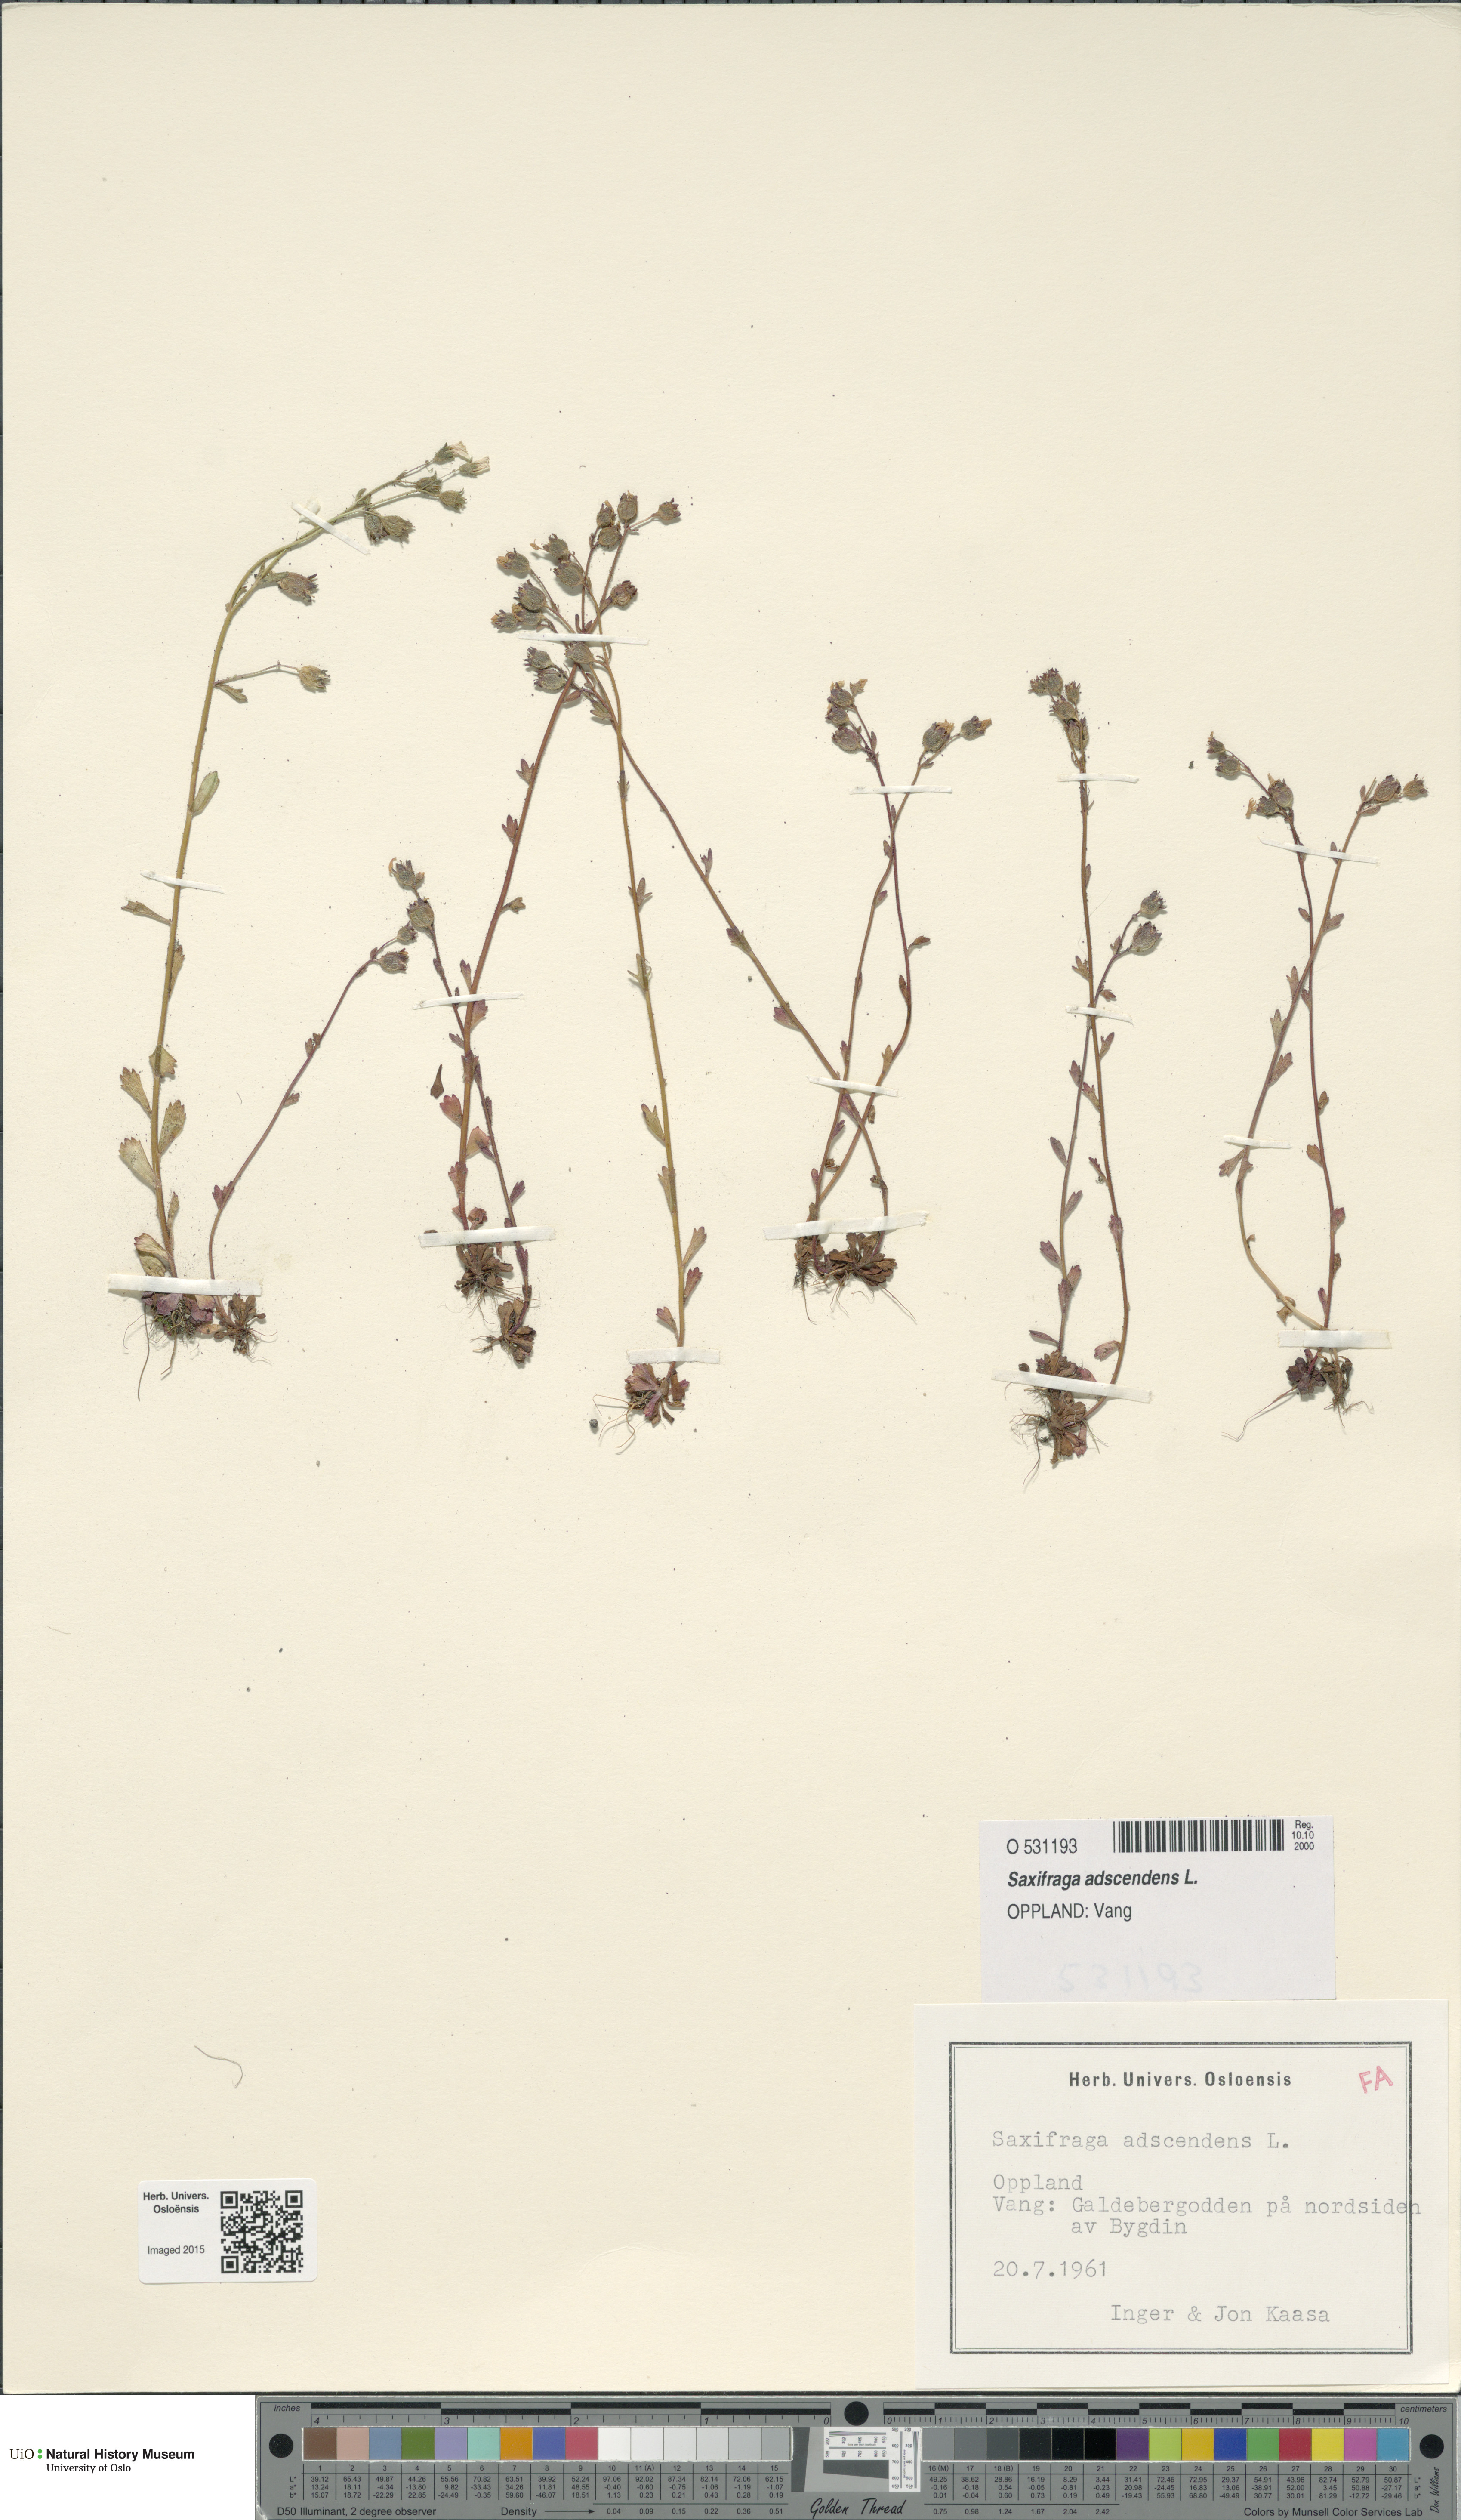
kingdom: Plantae
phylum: Tracheophyta
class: Magnoliopsida
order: Saxifragales
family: Saxifragaceae
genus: Saxifraga
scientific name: Saxifraga adscendens
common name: Ascending saxifrage
